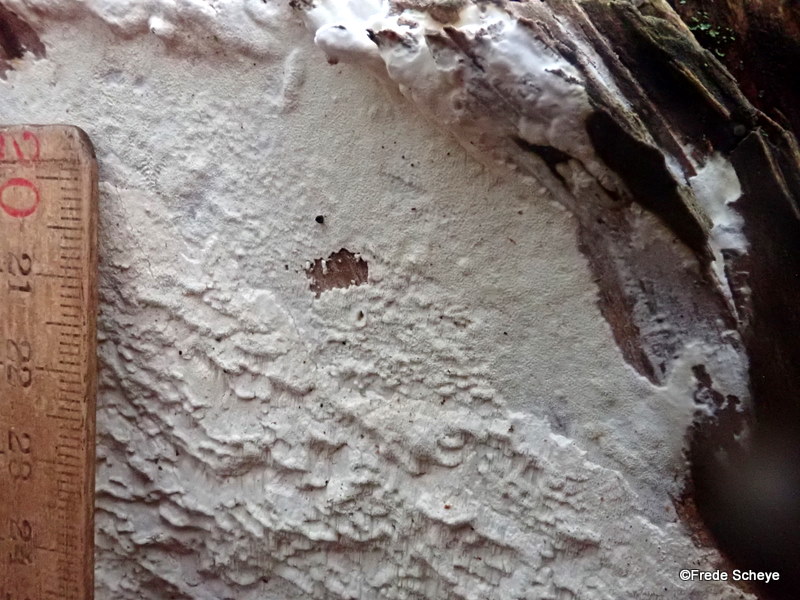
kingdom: Fungi
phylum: Basidiomycota
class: Agaricomycetes
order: Polyporales
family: Fomitopsidaceae
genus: Daedalea
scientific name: Daedalea xantha
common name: gul sejporesvamp
